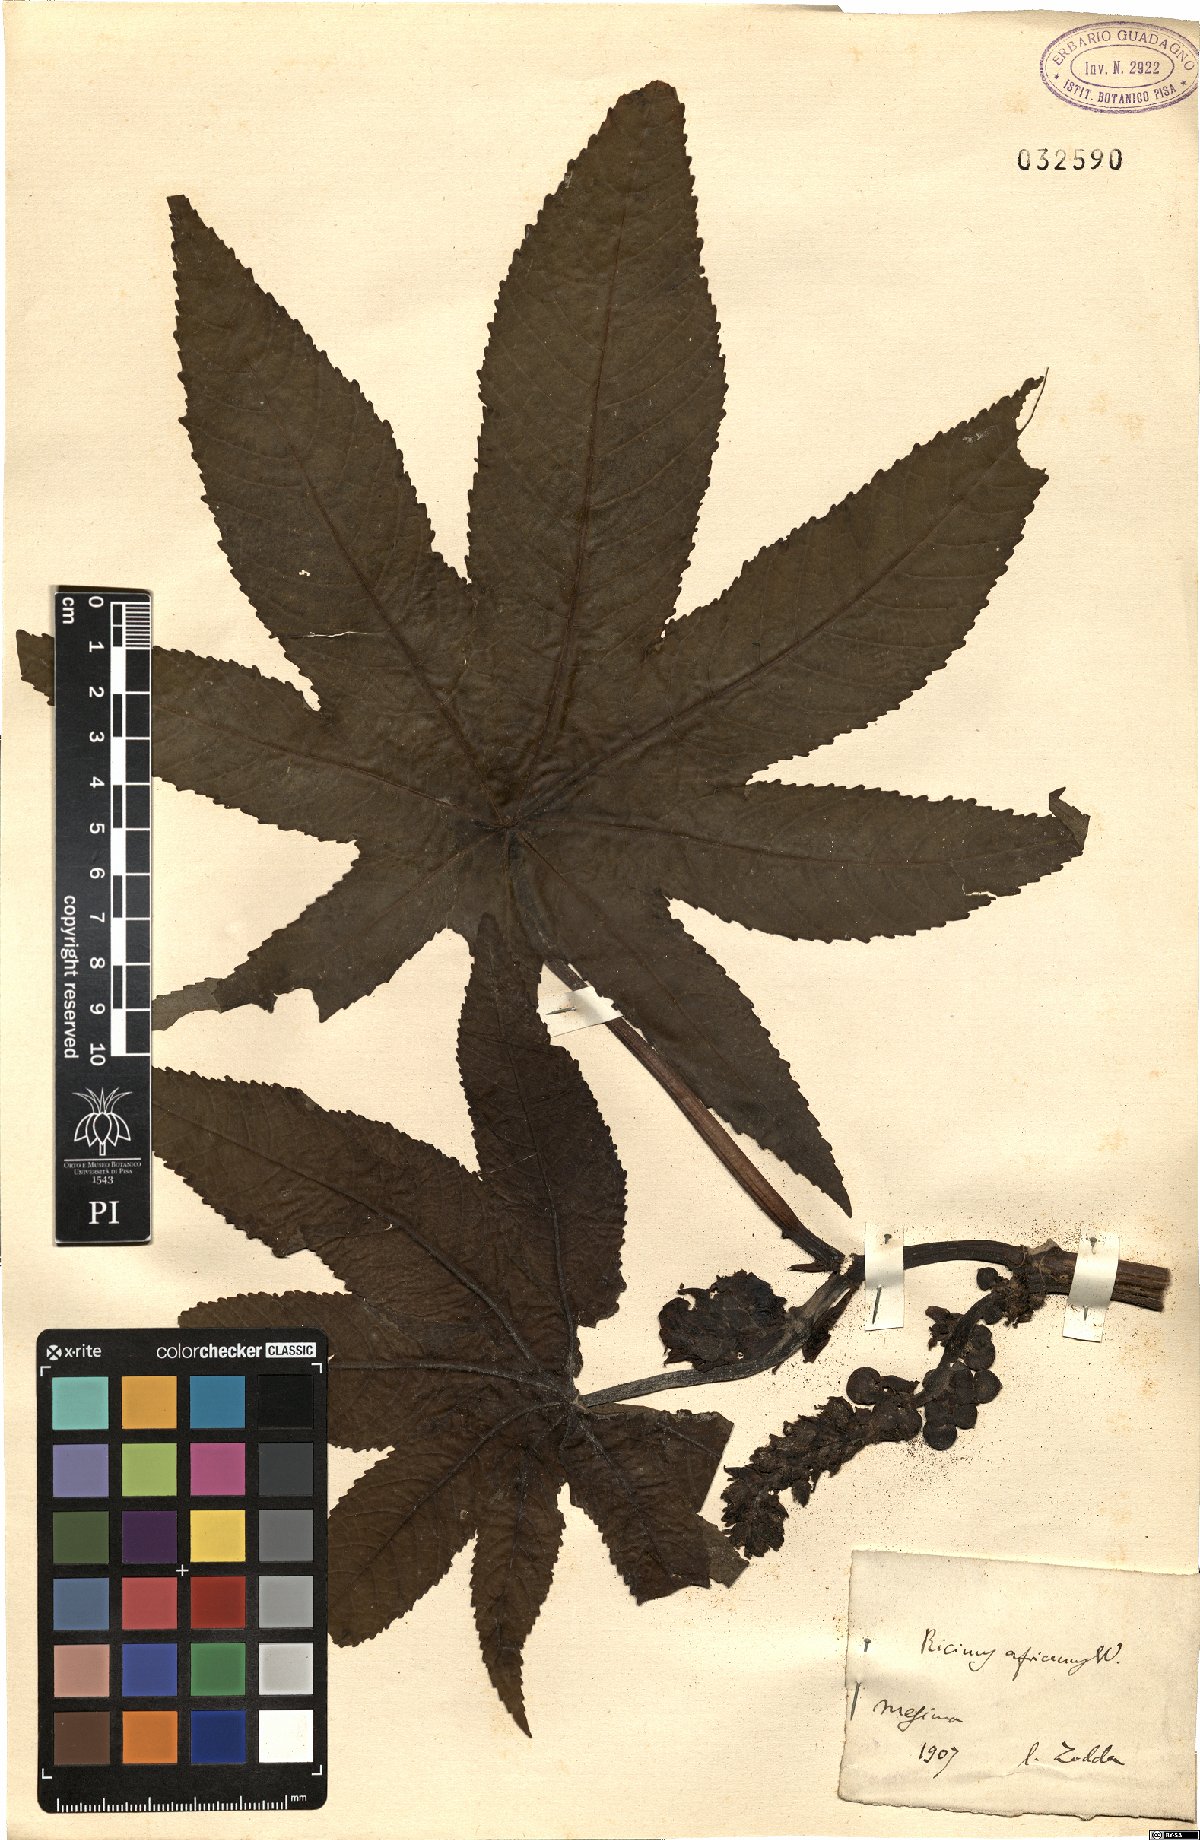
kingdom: Plantae
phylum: Tracheophyta
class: Magnoliopsida
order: Malpighiales
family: Euphorbiaceae
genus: Ricinus
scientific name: Ricinus communis
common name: Castor-oil-plant
